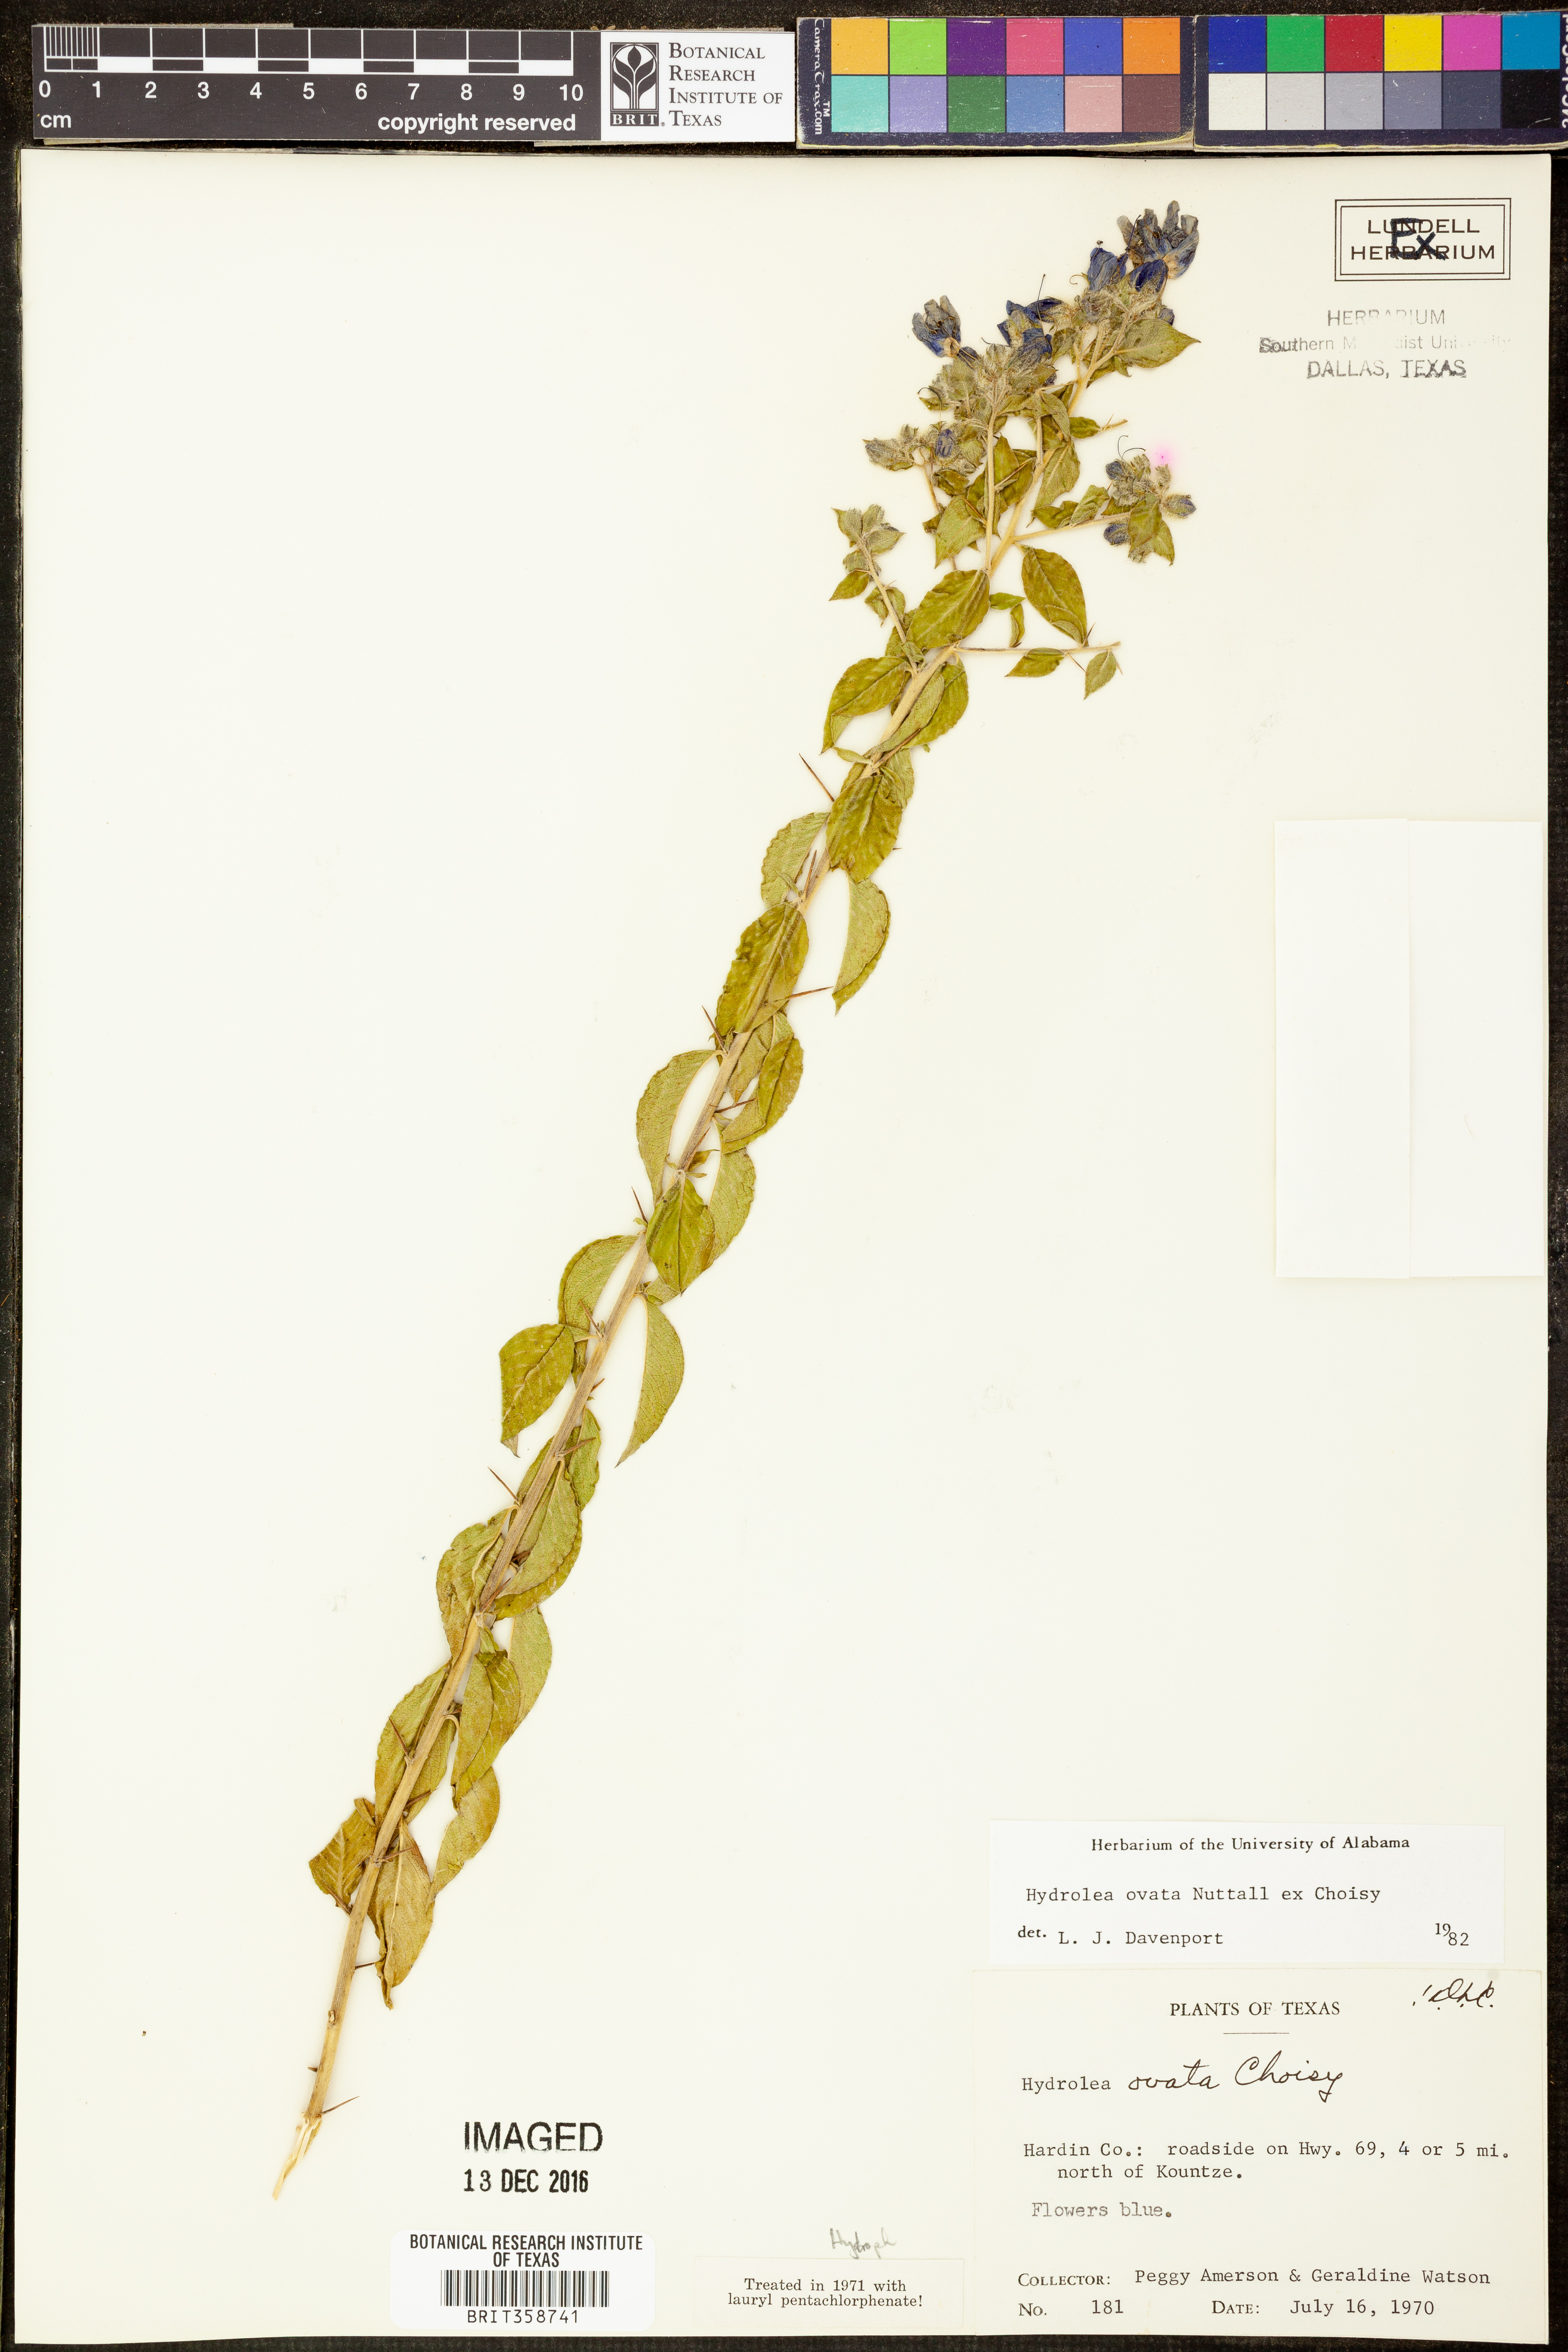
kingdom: Plantae
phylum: Tracheophyta
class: Magnoliopsida
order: Solanales
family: Hydroleaceae
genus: Hydrolea
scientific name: Hydrolea ovata
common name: Ovate false fiddleleaf
